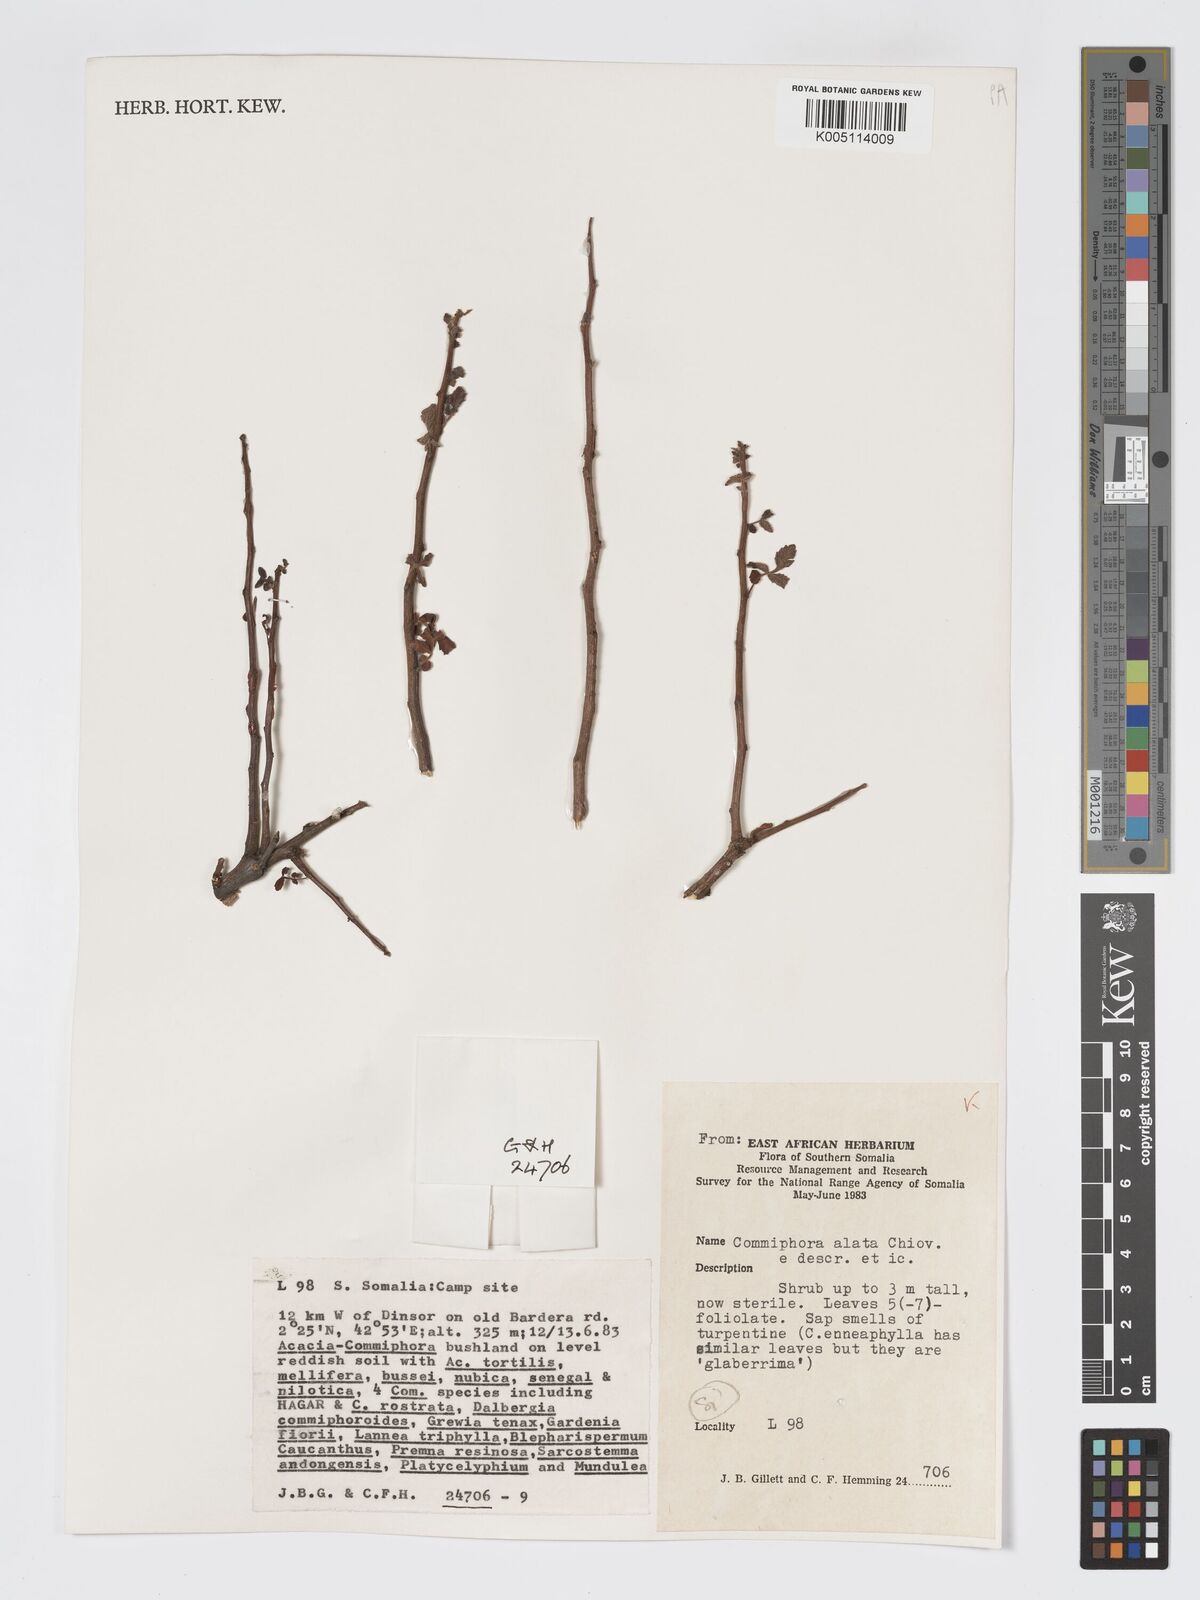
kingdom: Plantae
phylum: Tracheophyta
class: Magnoliopsida
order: Sapindales
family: Burseraceae
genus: Commiphora
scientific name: Commiphora alata
